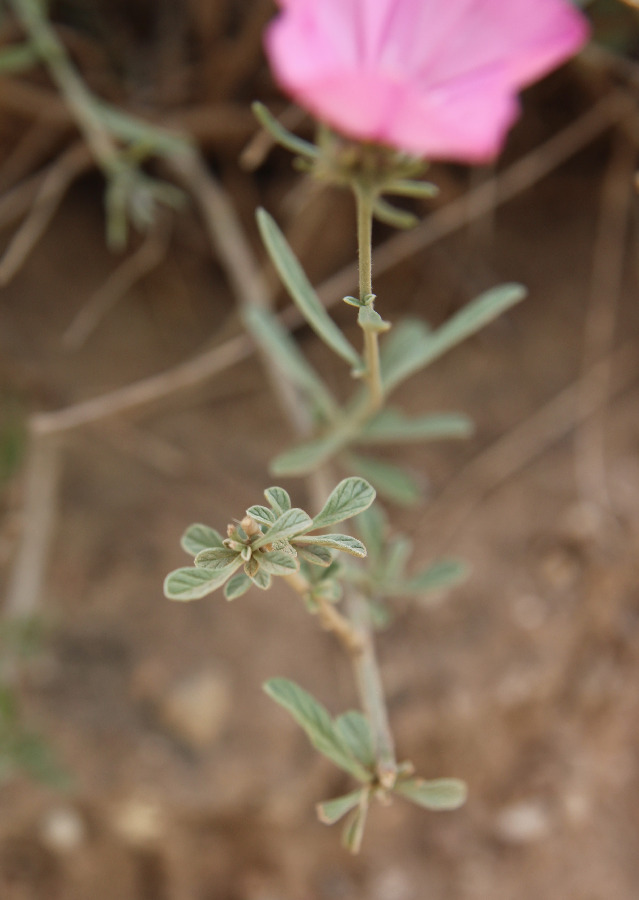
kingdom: Plantae
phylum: Tracheophyta
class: Magnoliopsida
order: Solanales
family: Convolvulaceae
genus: Convolvulus
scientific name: Convolvulus oleifolius
